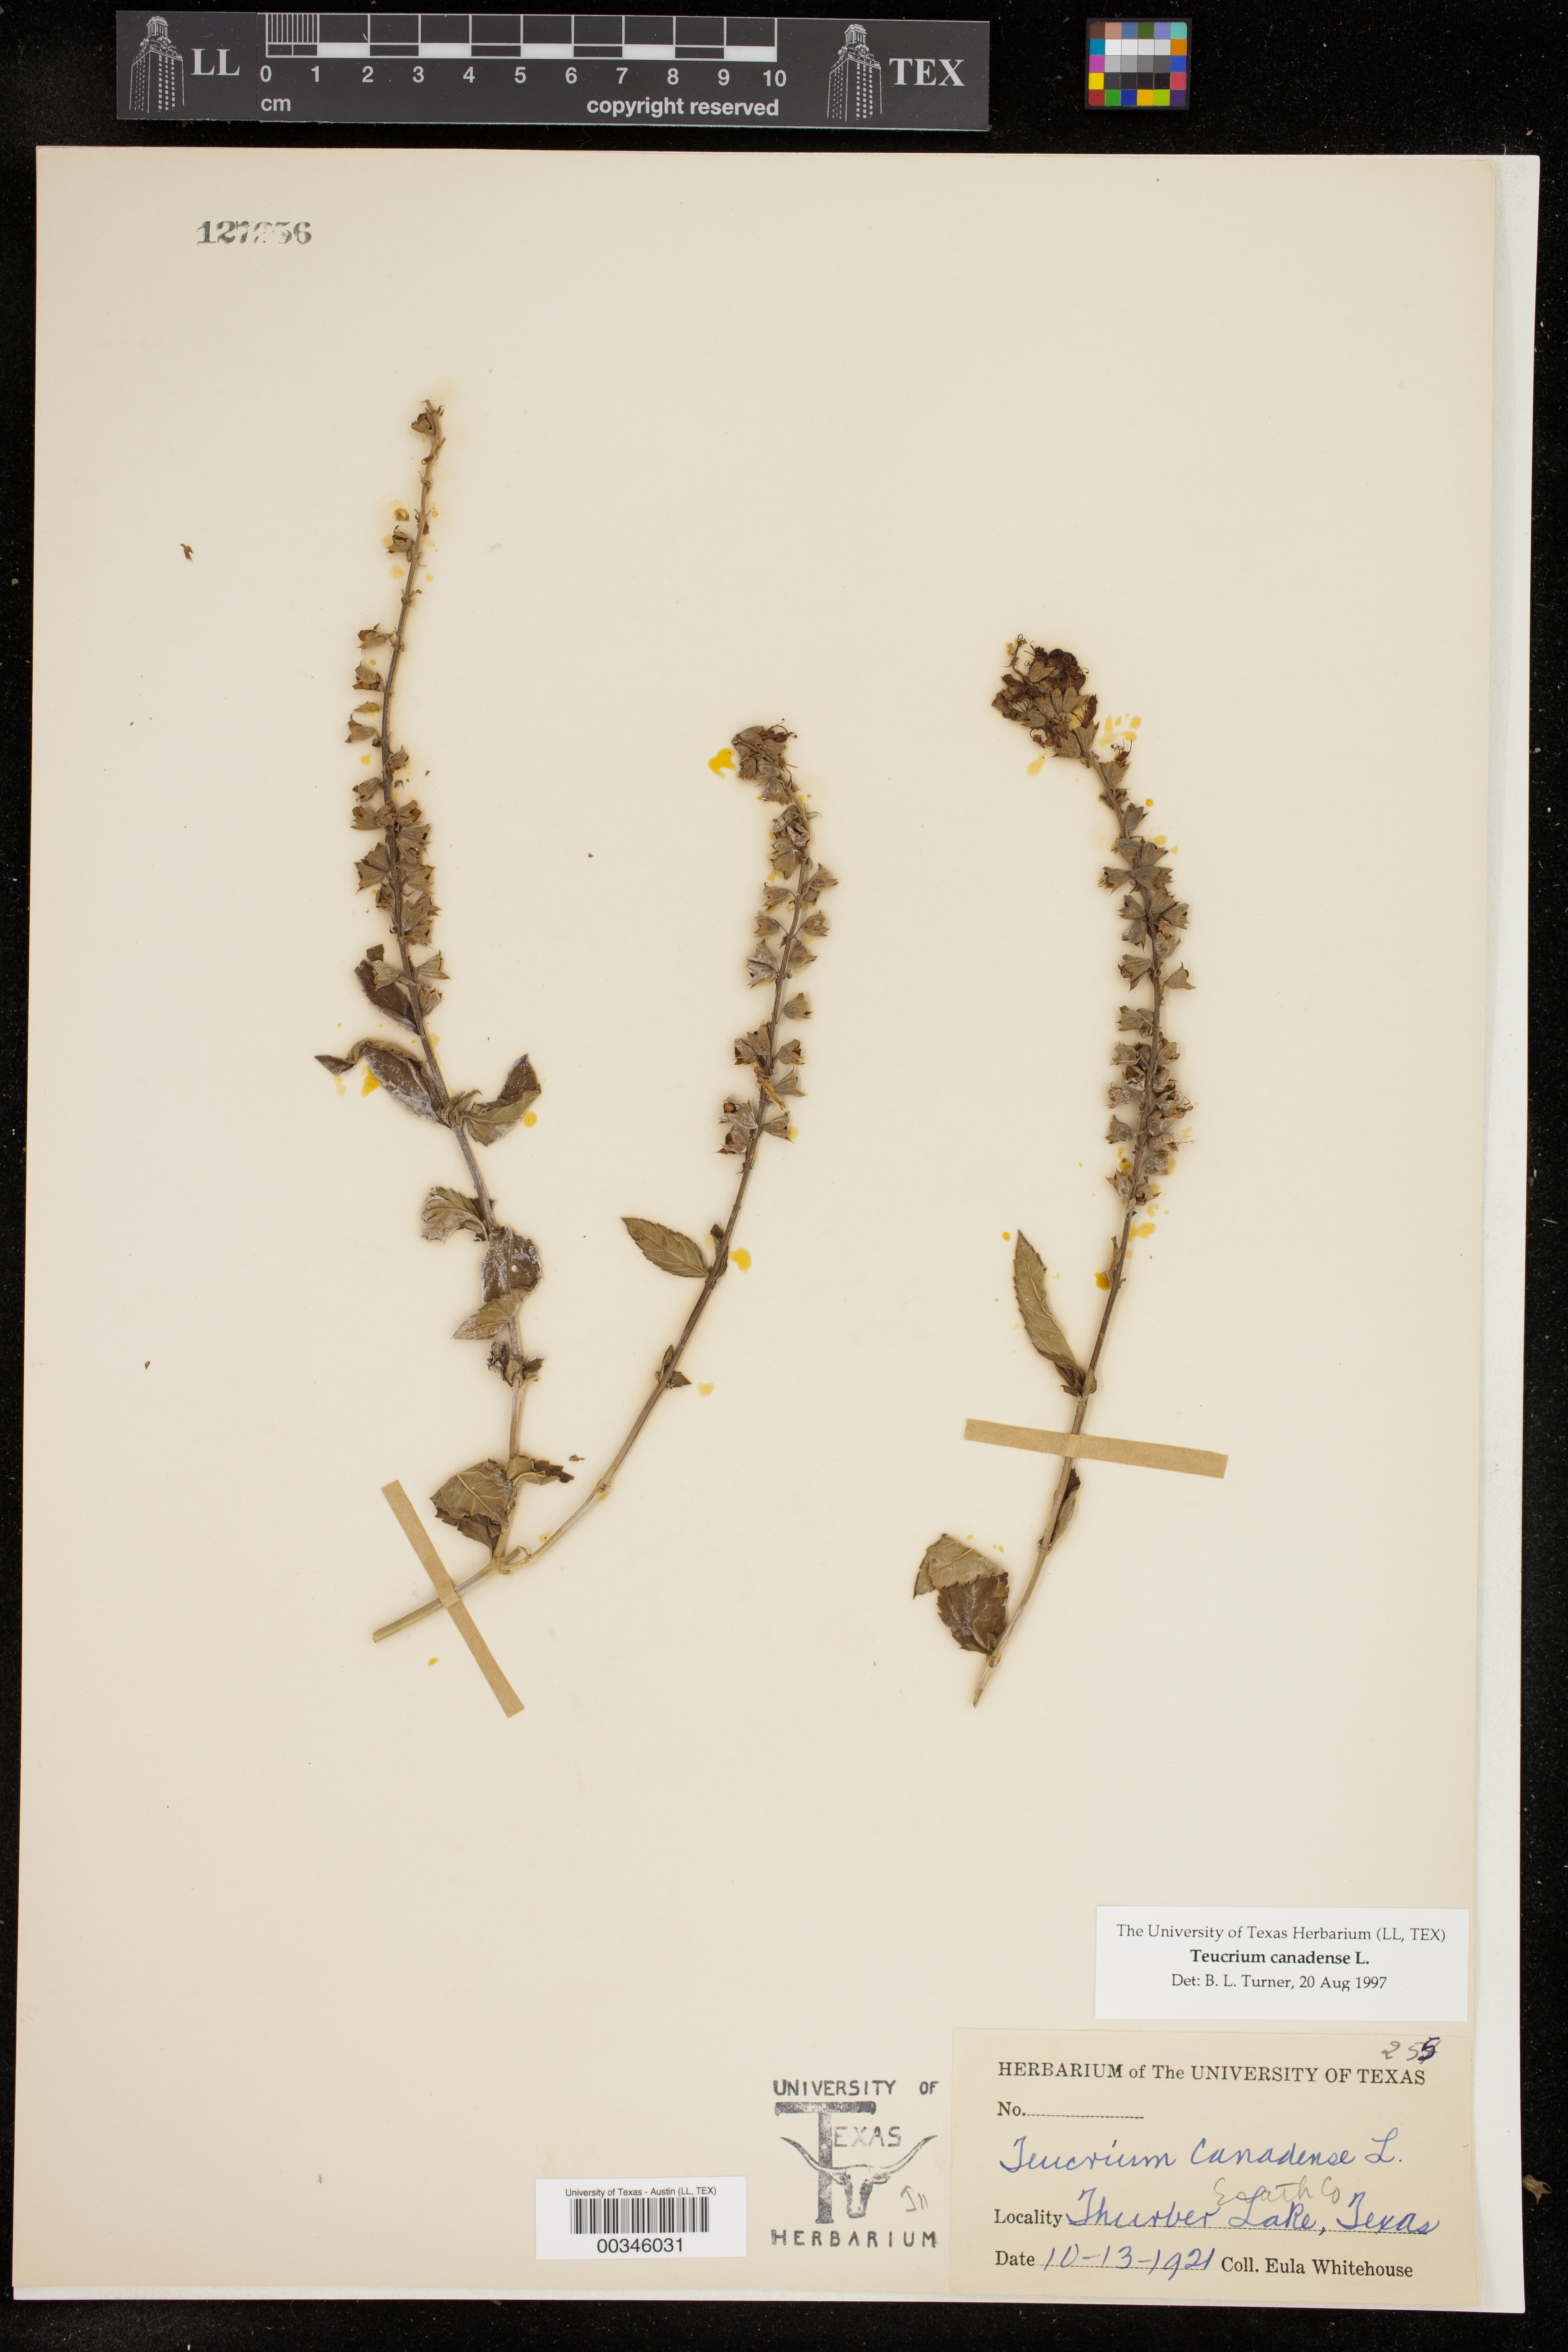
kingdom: Plantae
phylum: Tracheophyta
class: Magnoliopsida
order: Lamiales
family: Lamiaceae
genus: Teucrium
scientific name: Teucrium canadense
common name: American germander
